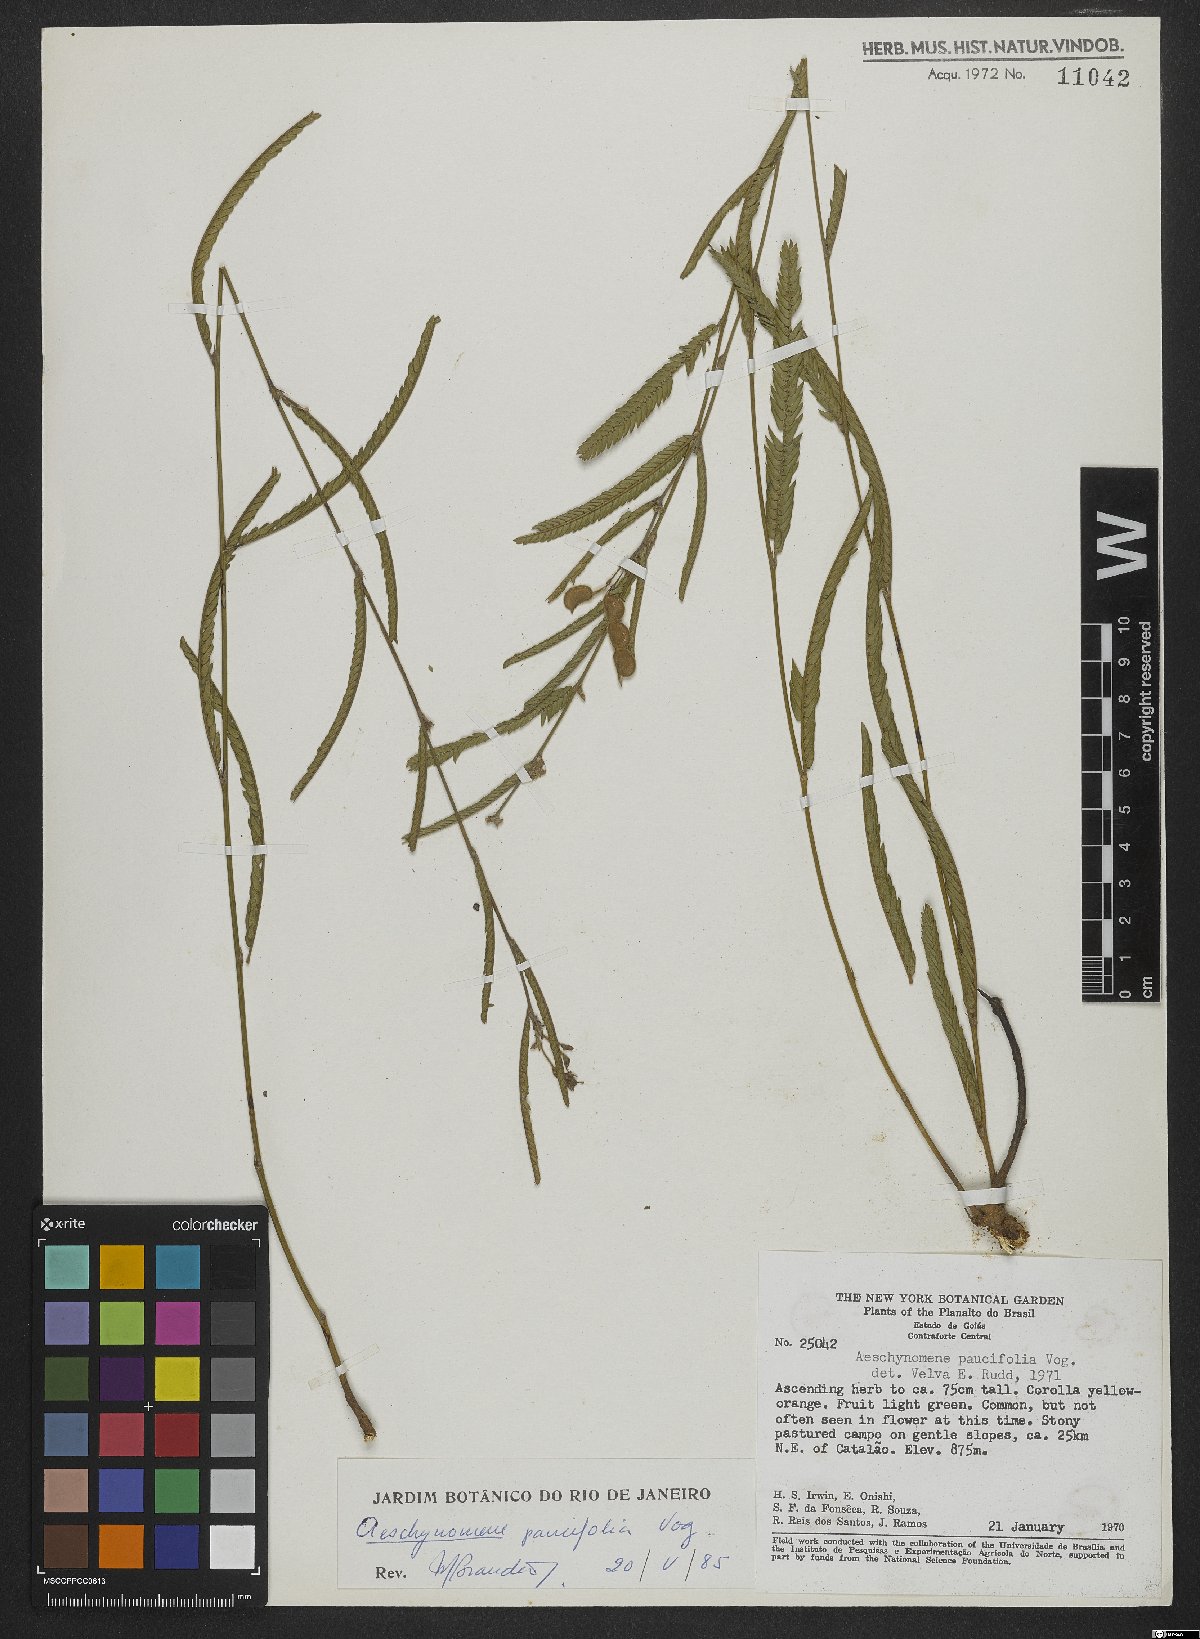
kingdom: Plantae
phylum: Tracheophyta
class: Magnoliopsida
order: Fabales
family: Fabaceae
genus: Ctenodon
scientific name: Ctenodon paucifolius
